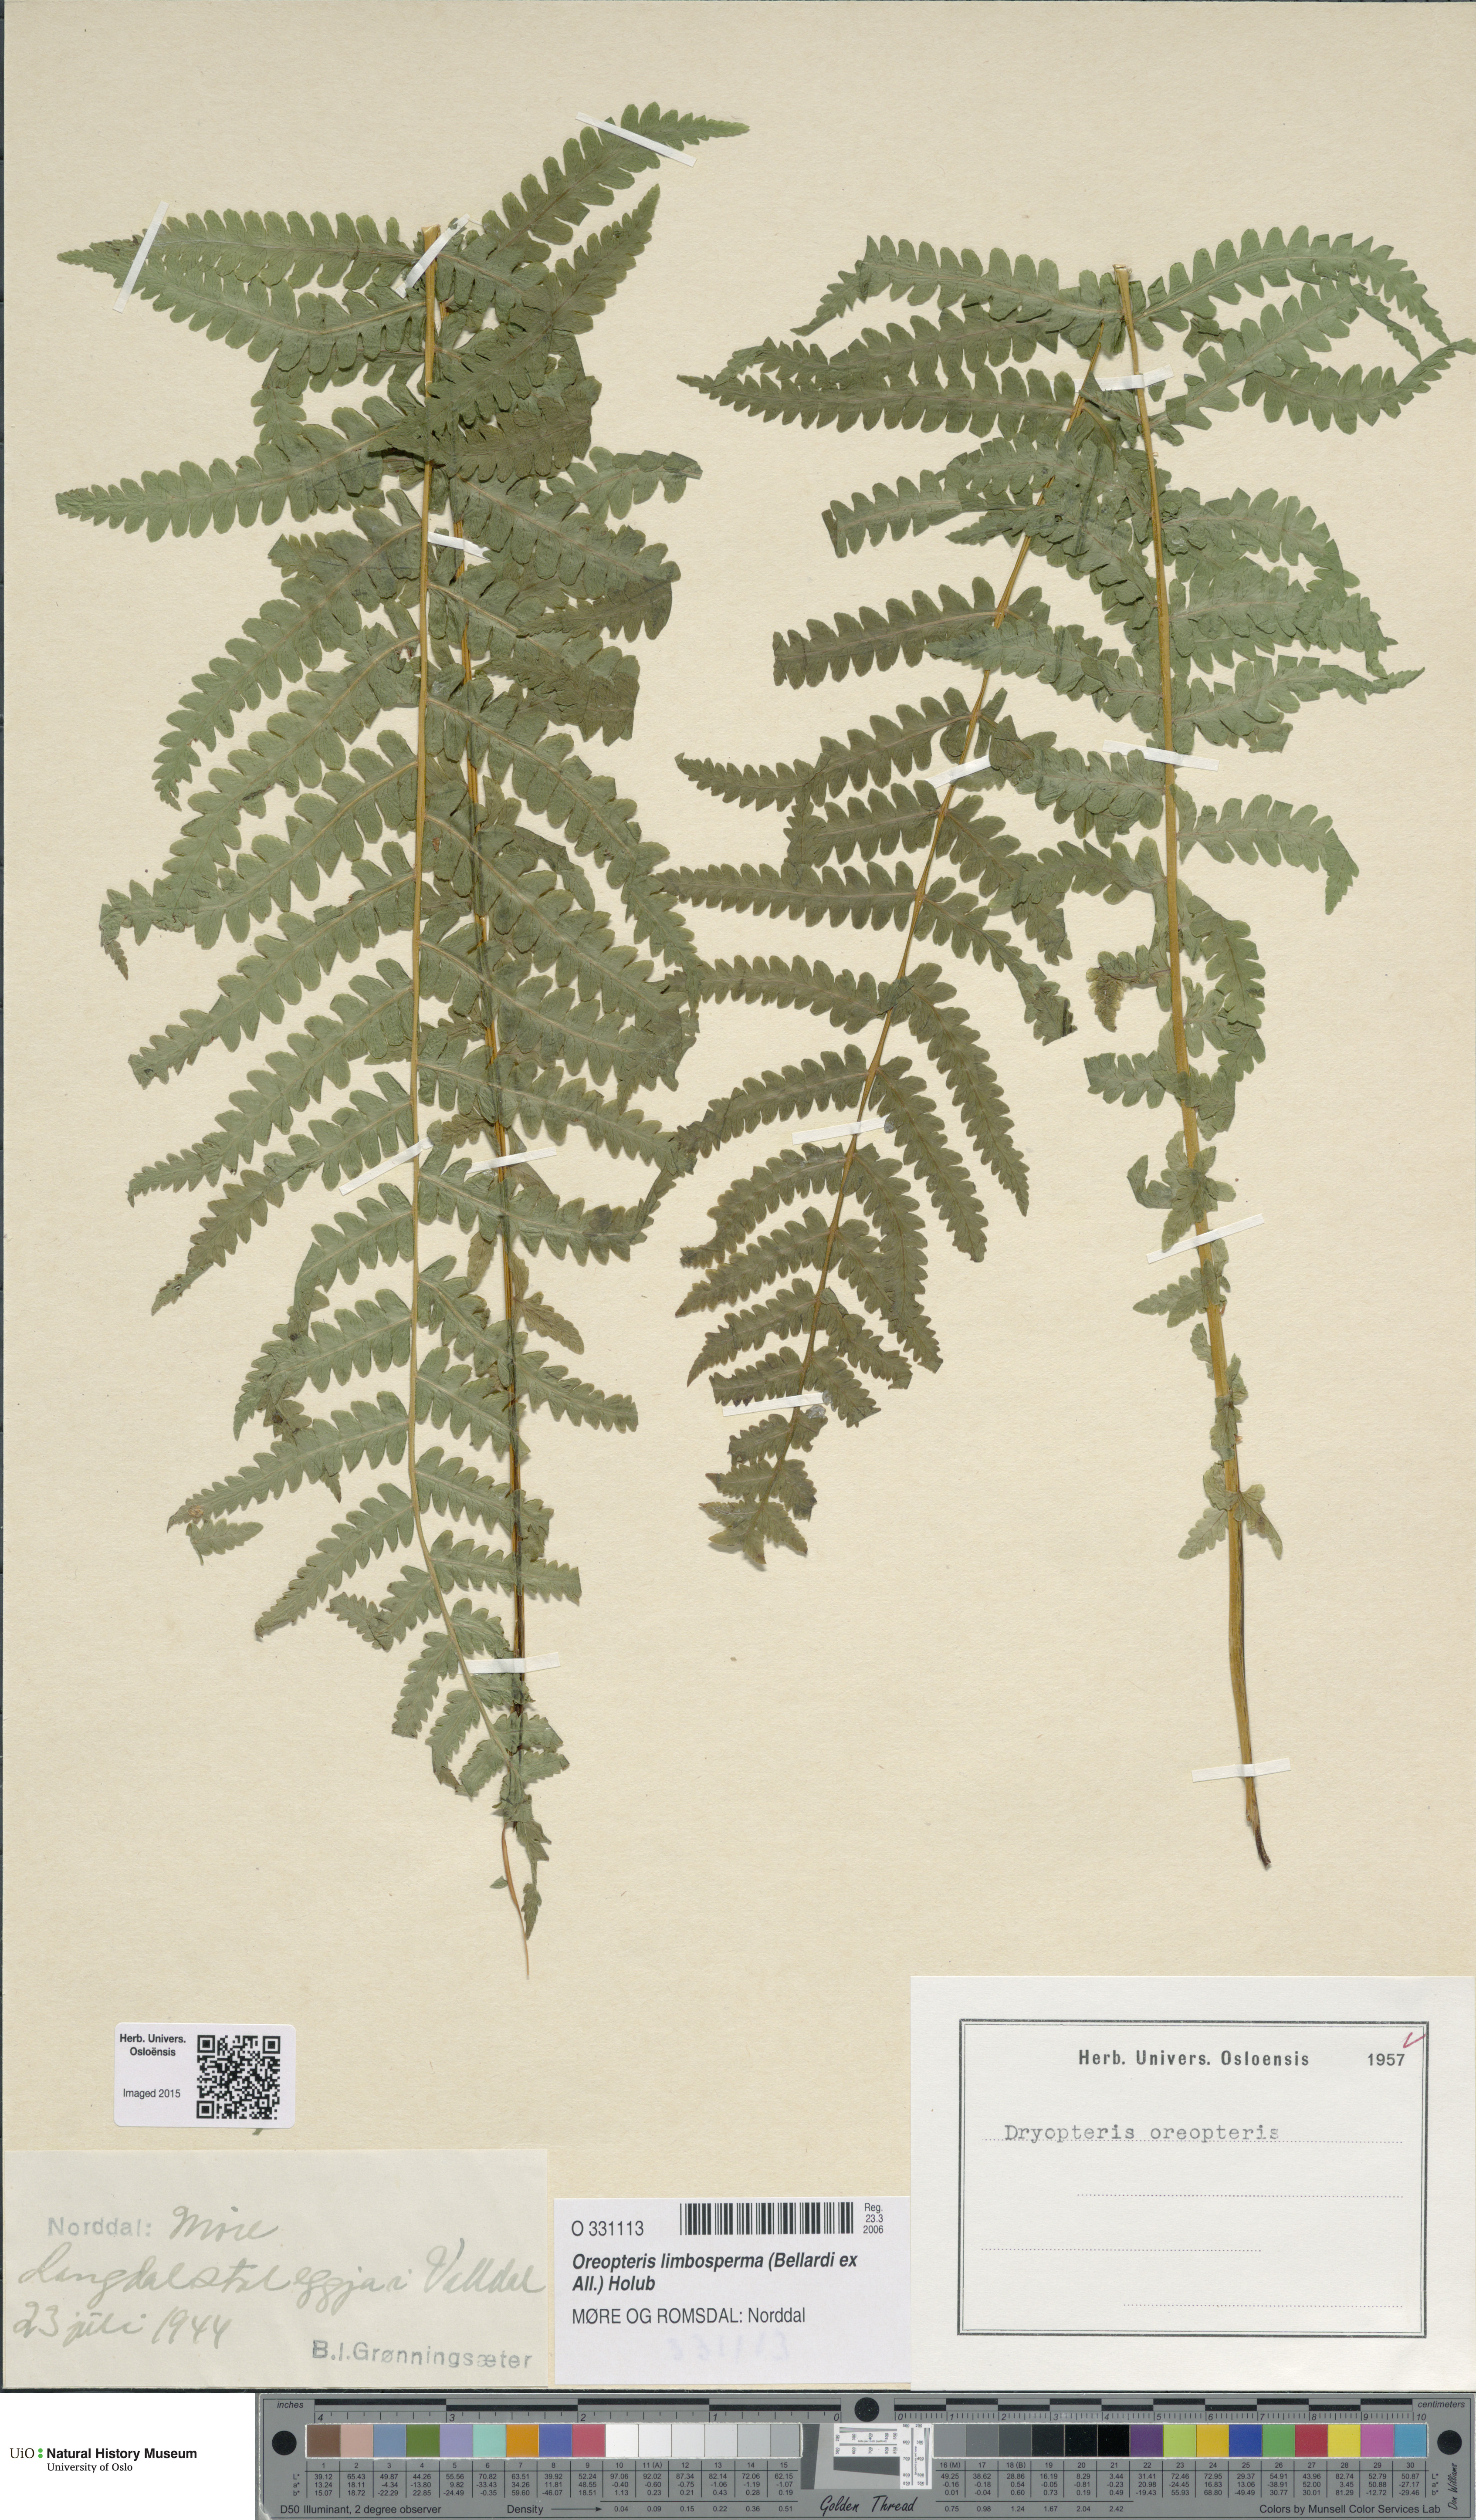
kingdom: Plantae
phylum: Tracheophyta
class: Polypodiopsida
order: Polypodiales
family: Thelypteridaceae
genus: Oreopteris
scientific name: Oreopteris limbosperma
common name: Lemon-scented fern
